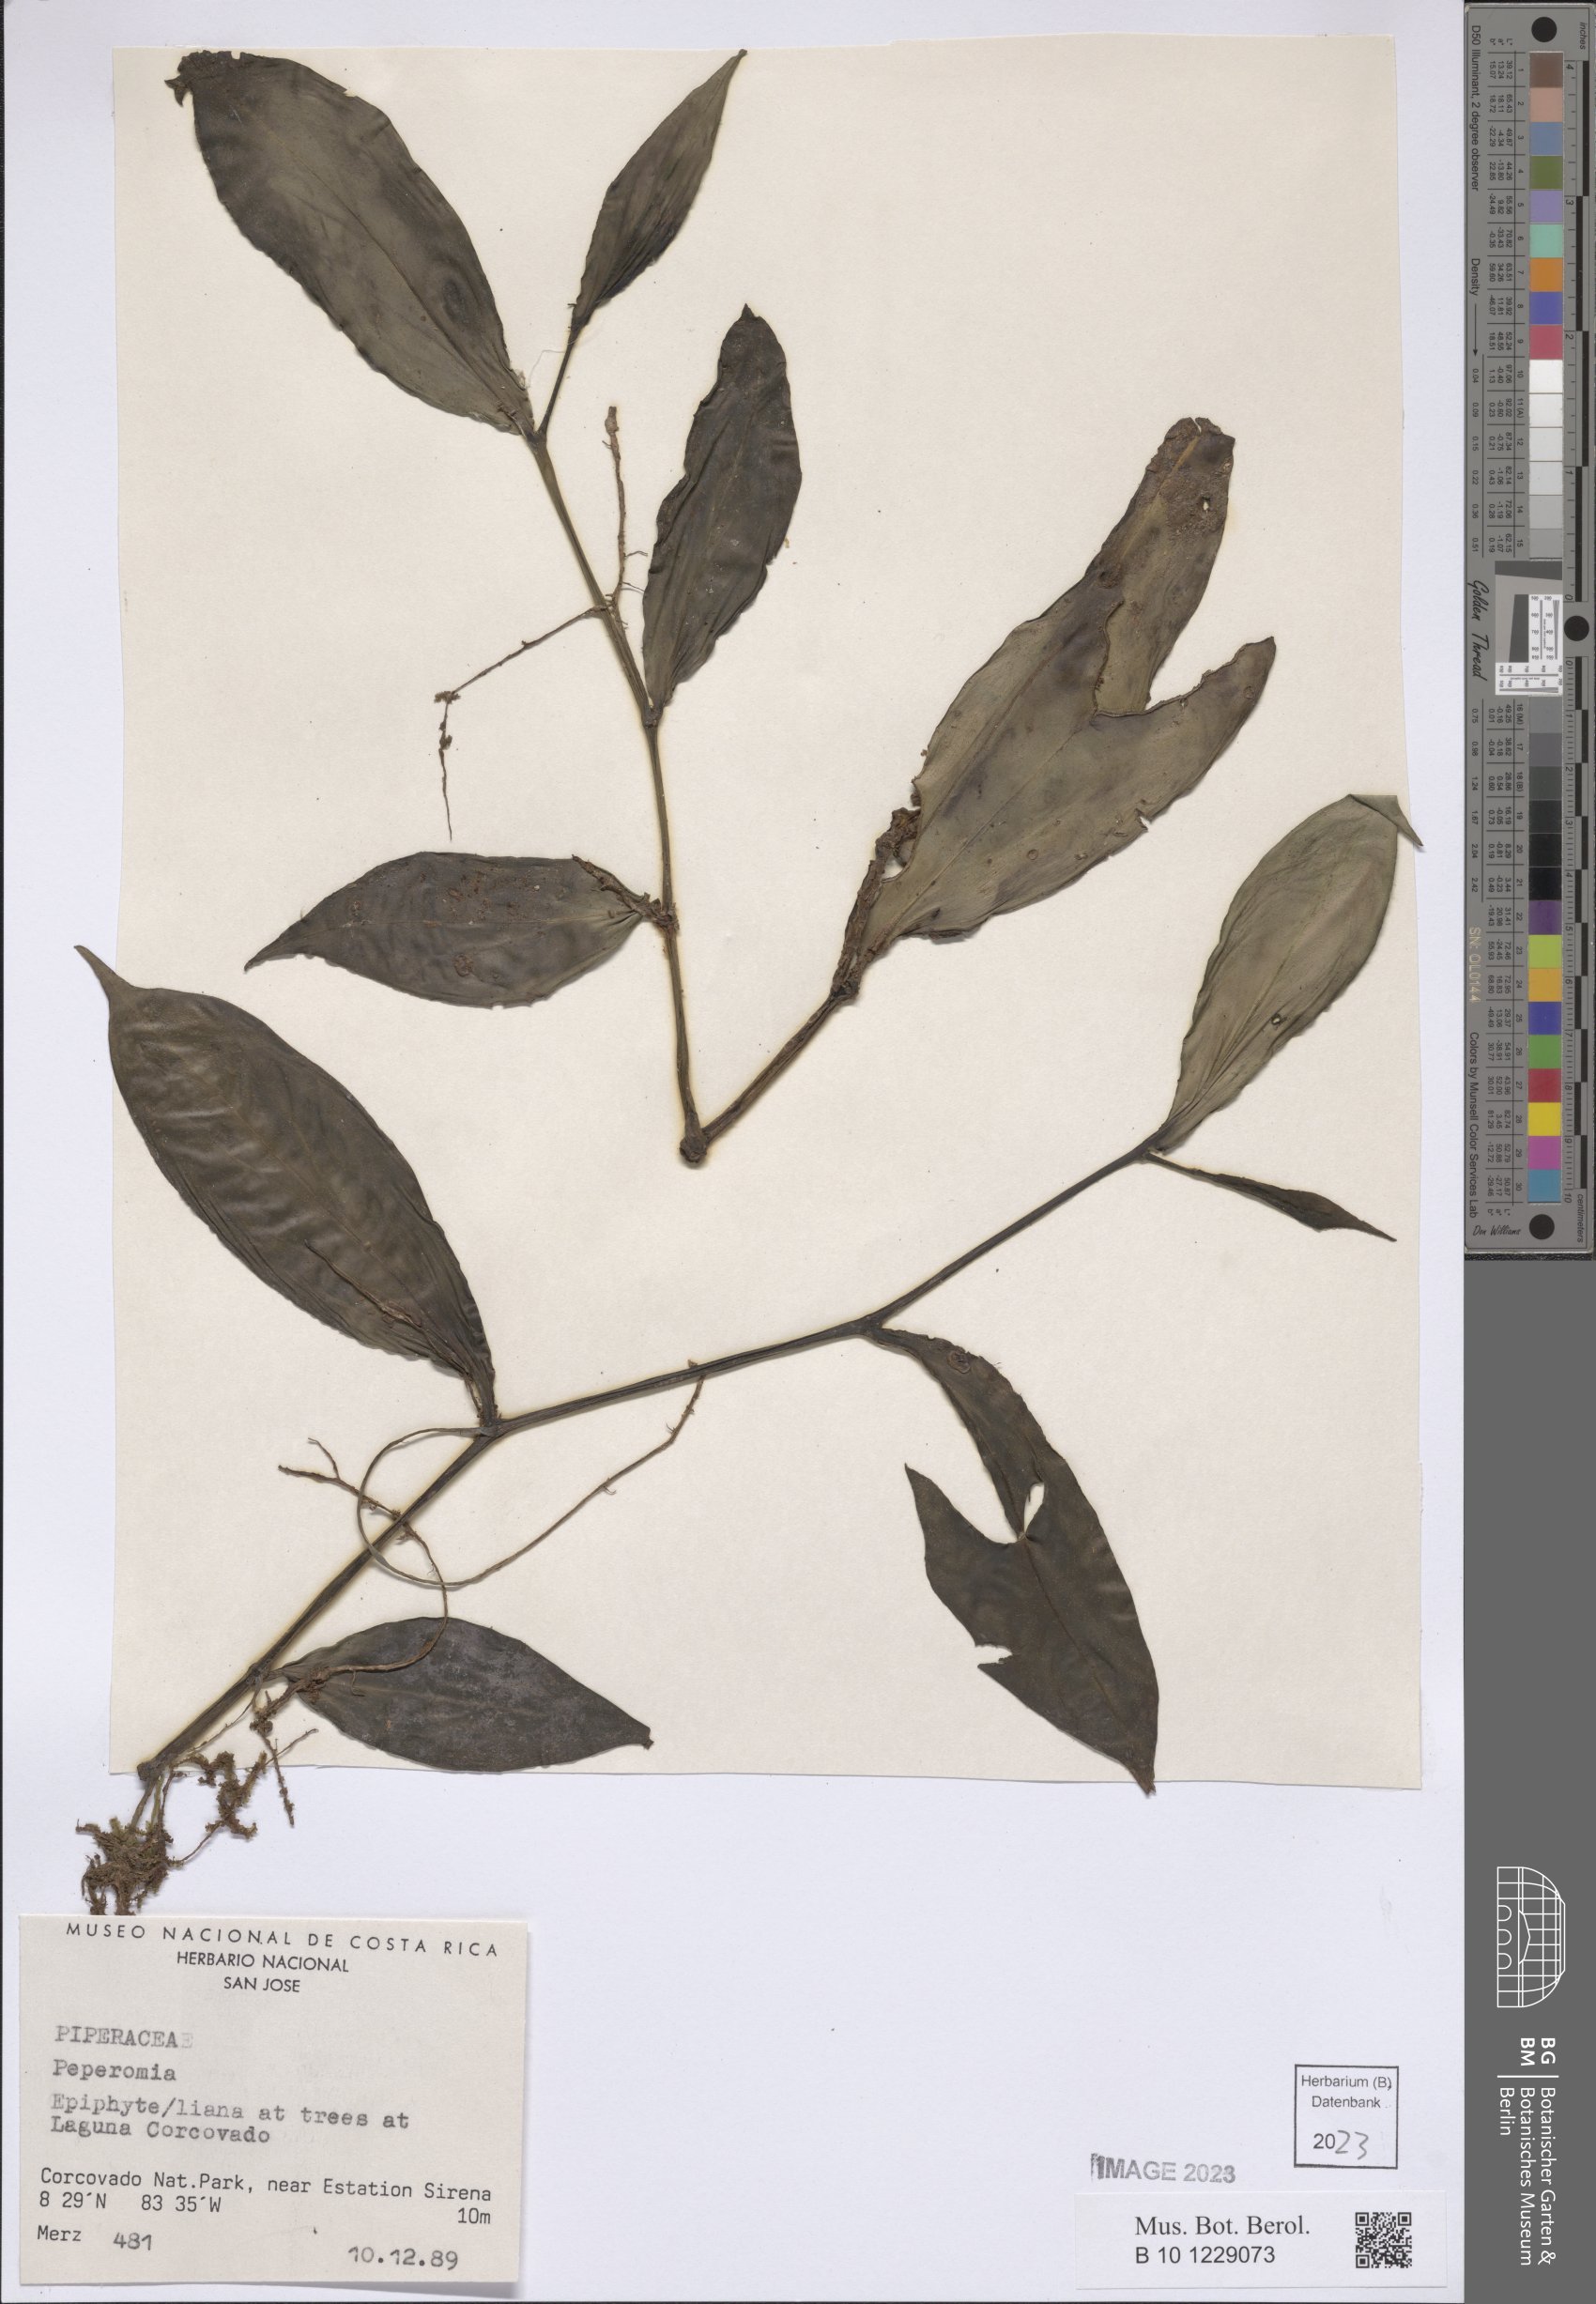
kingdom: Plantae
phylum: Tracheophyta
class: Magnoliopsida
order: Piperales
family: Piperaceae
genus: Peperomia
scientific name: Peperomia
